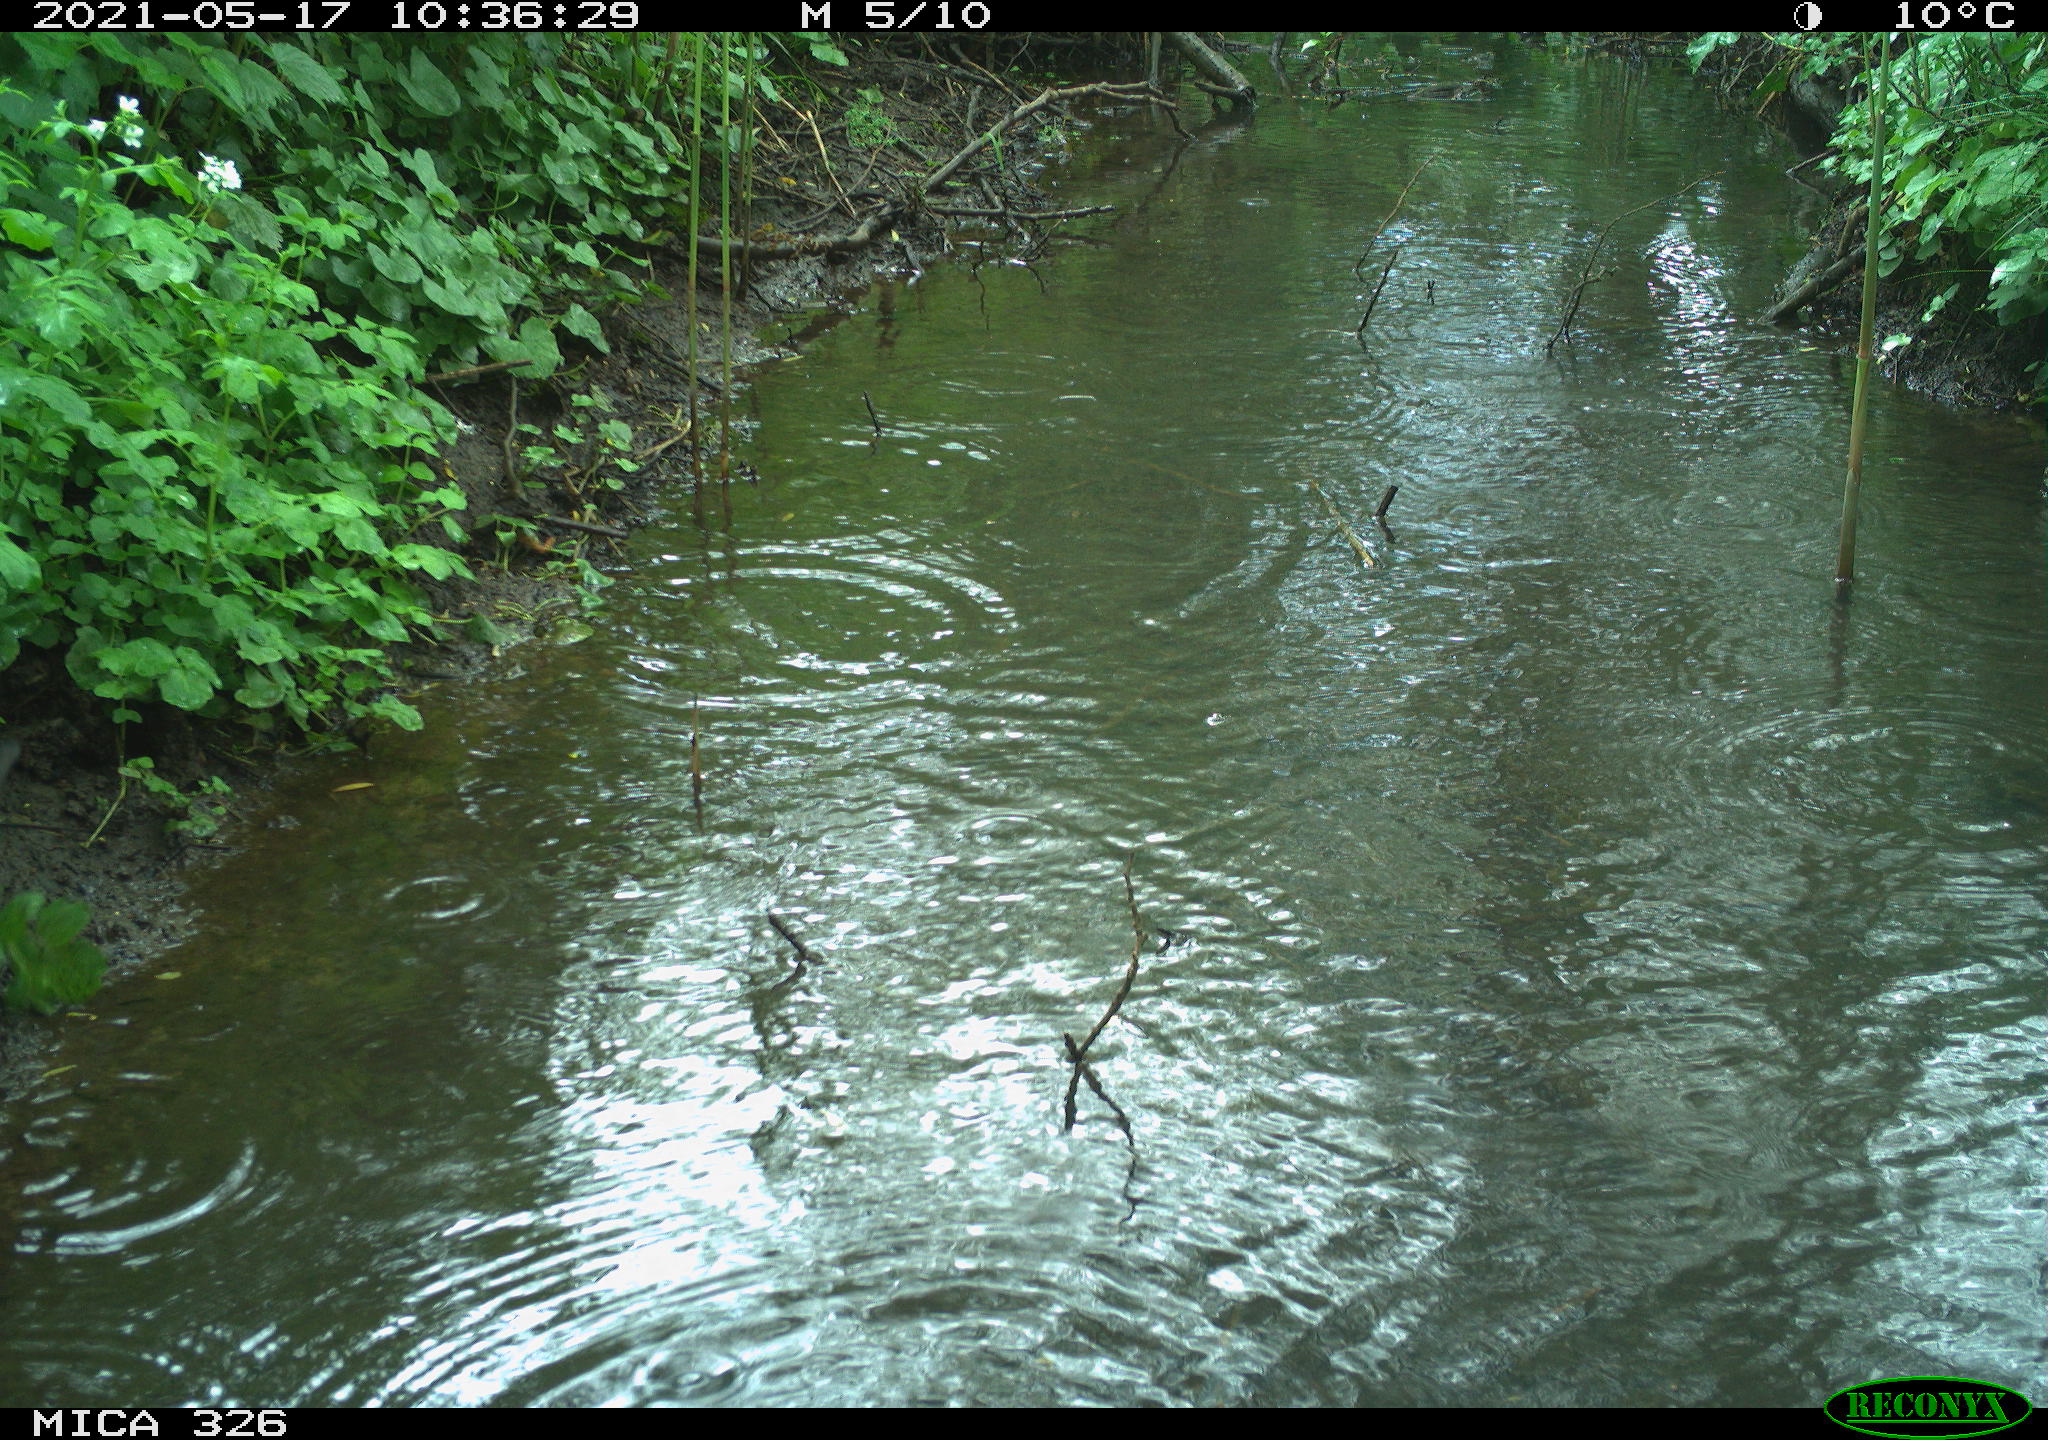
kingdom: Animalia
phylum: Chordata
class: Aves
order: Passeriformes
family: Turdidae
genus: Turdus
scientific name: Turdus merula
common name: Common blackbird
